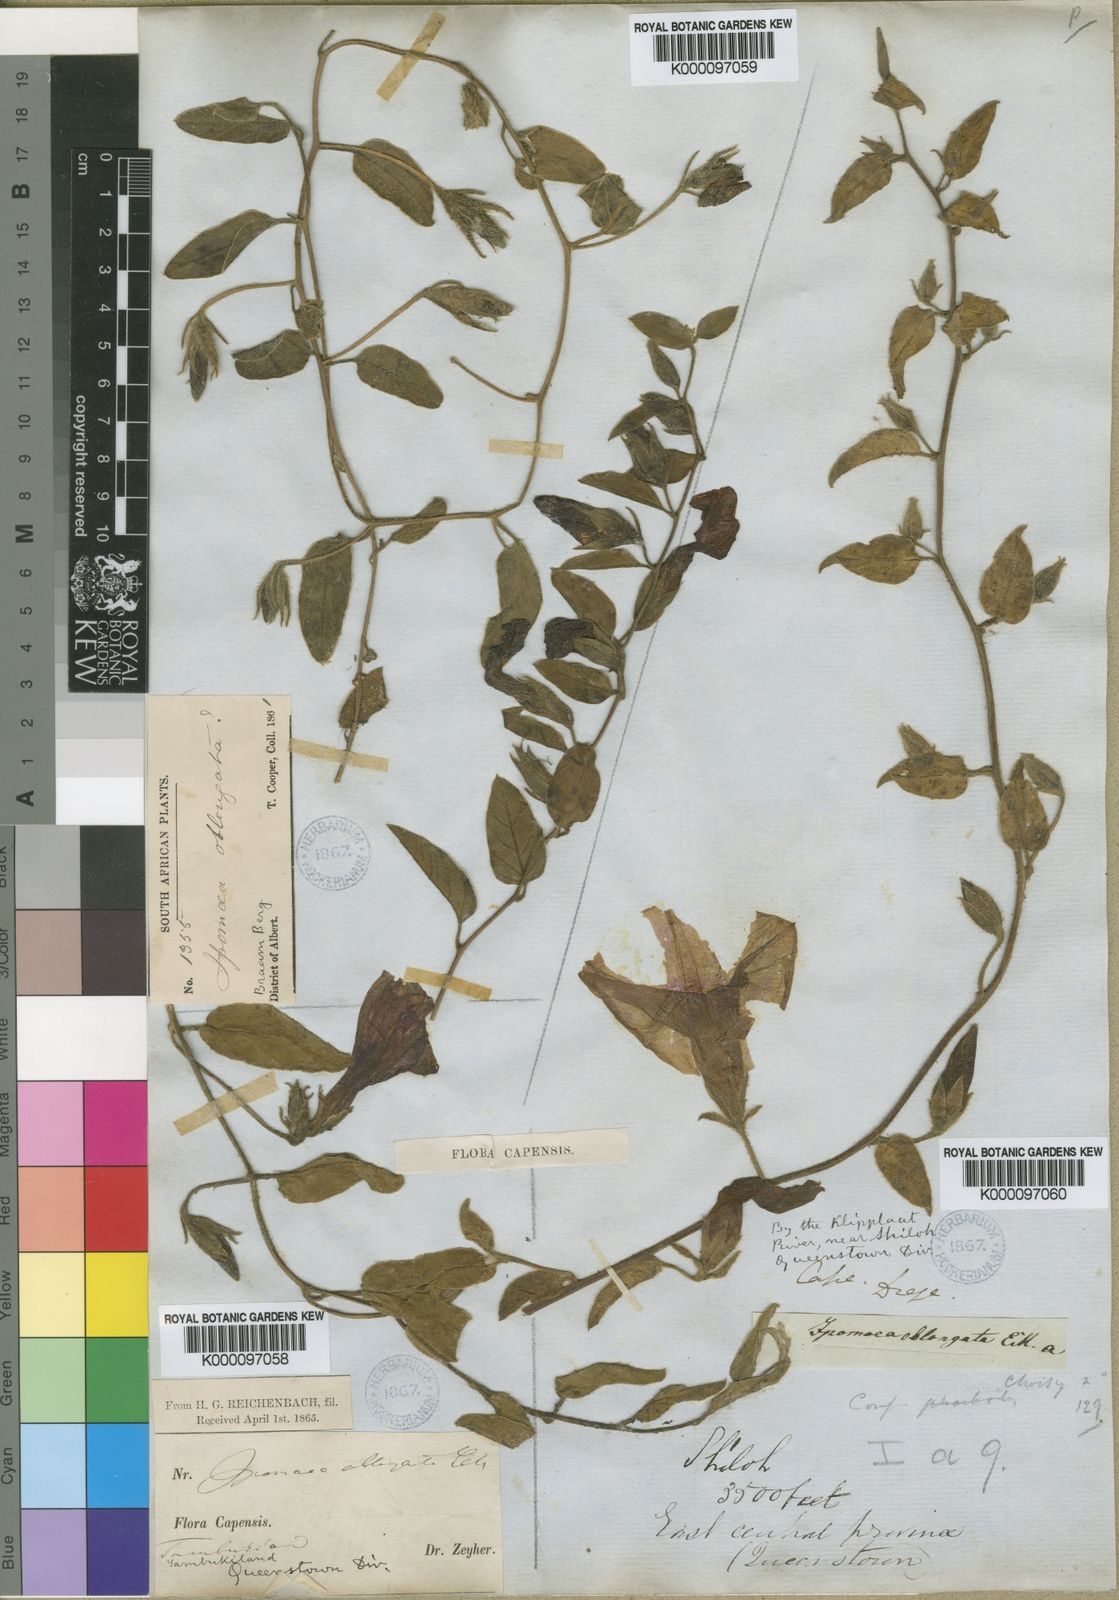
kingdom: Plantae
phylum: Tracheophyta
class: Magnoliopsida
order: Solanales
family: Convolvulaceae
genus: Ipomoea
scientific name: Ipomoea oblongata
